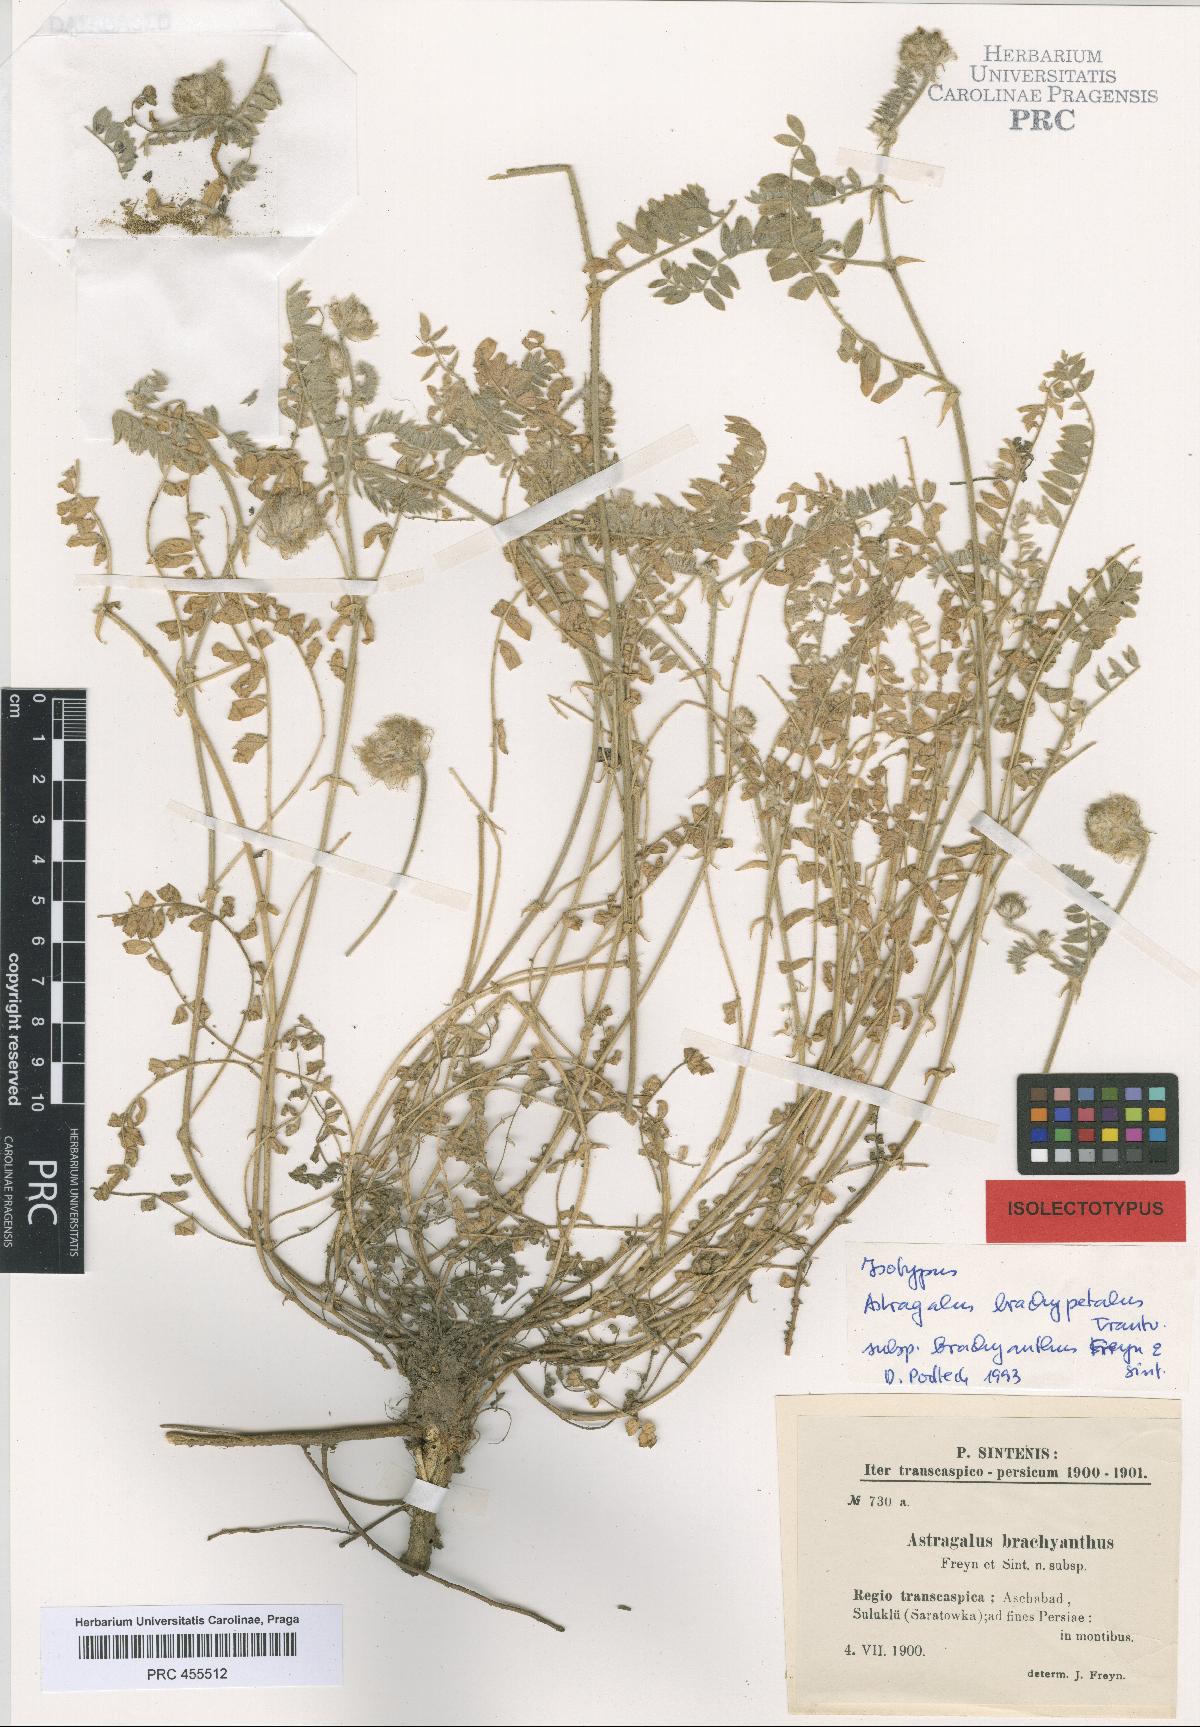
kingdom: Plantae
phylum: Tracheophyta
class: Magnoliopsida
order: Fabales
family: Fabaceae
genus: Astragalus
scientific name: Astragalus brachypetalus
